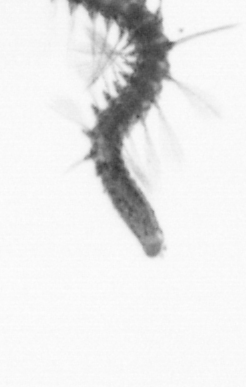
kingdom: Animalia
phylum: Annelida
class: Polychaeta
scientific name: Polychaeta
